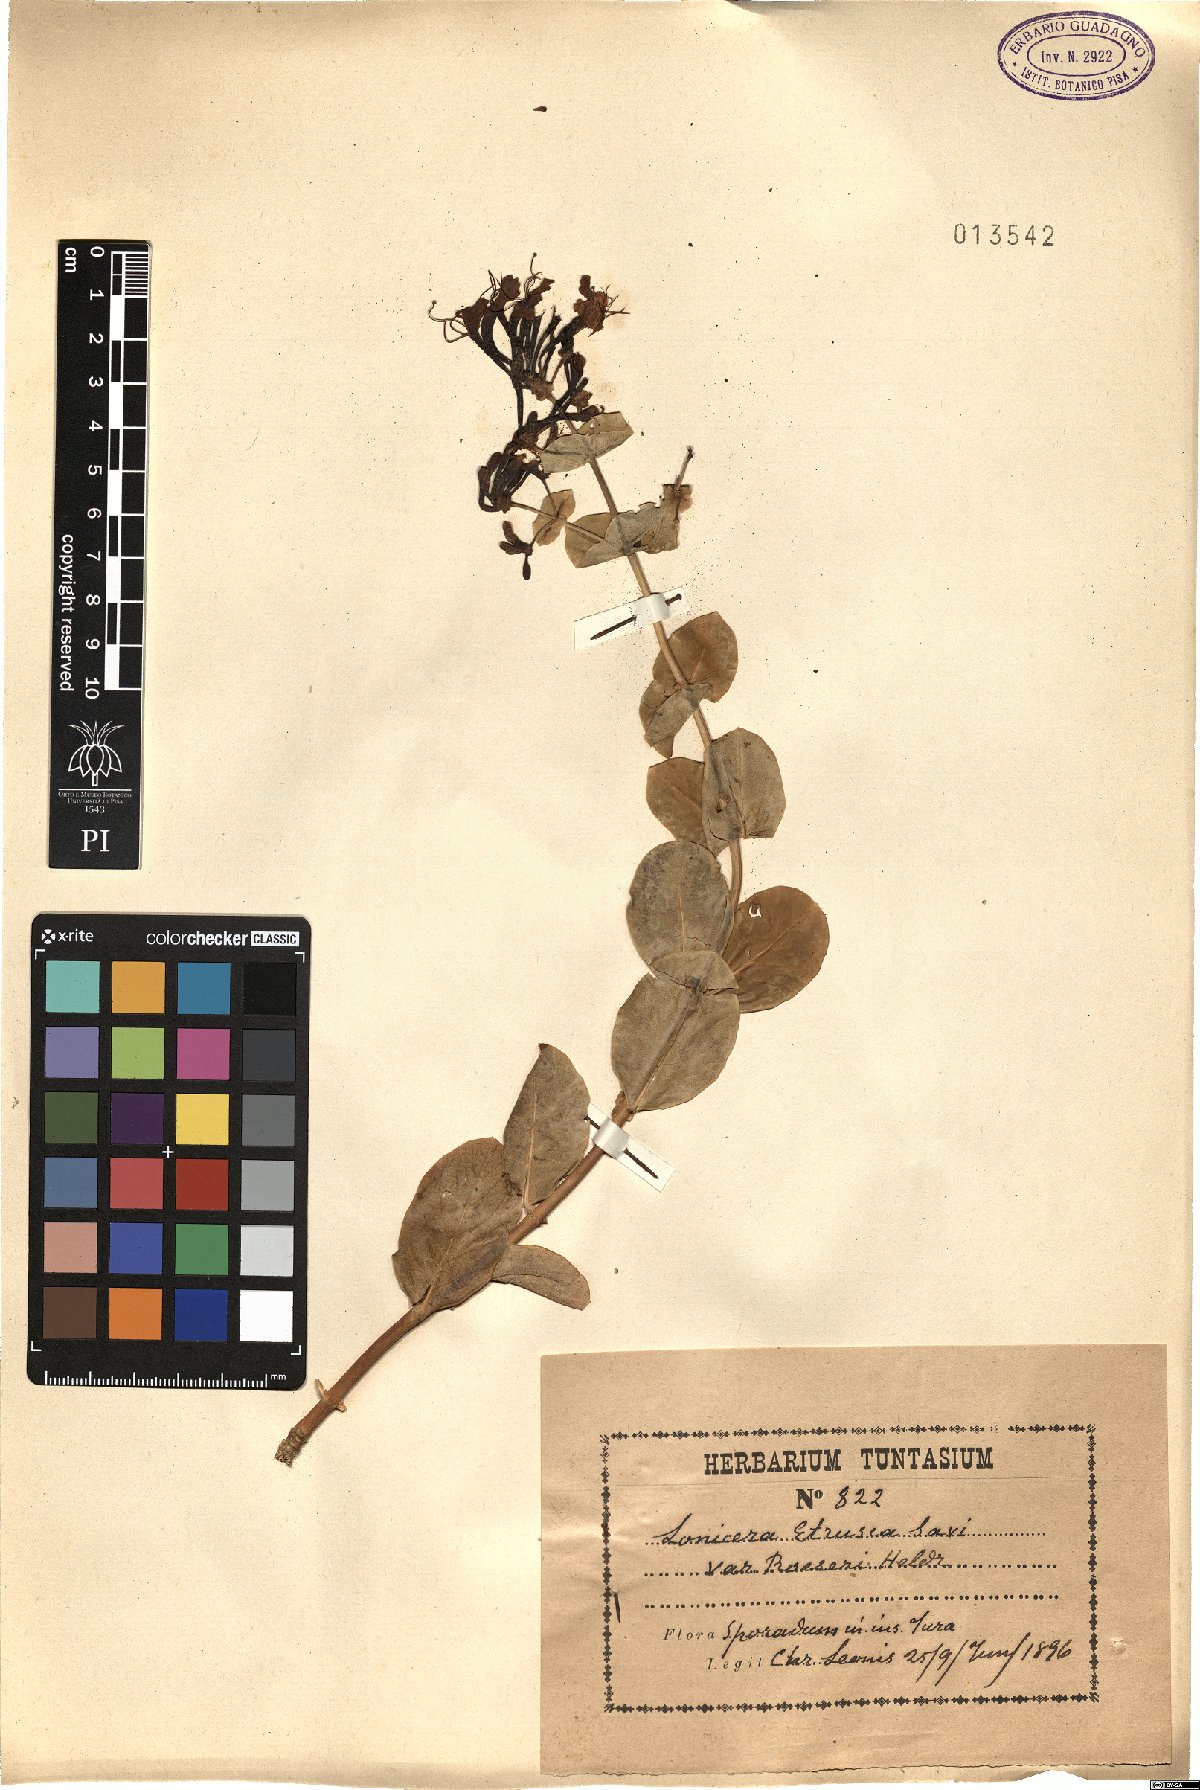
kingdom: Plantae
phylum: Tracheophyta
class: Magnoliopsida
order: Dipsacales
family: Caprifoliaceae
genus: Lonicera
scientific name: Lonicera etrusca
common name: Etruscan honeysuckle
